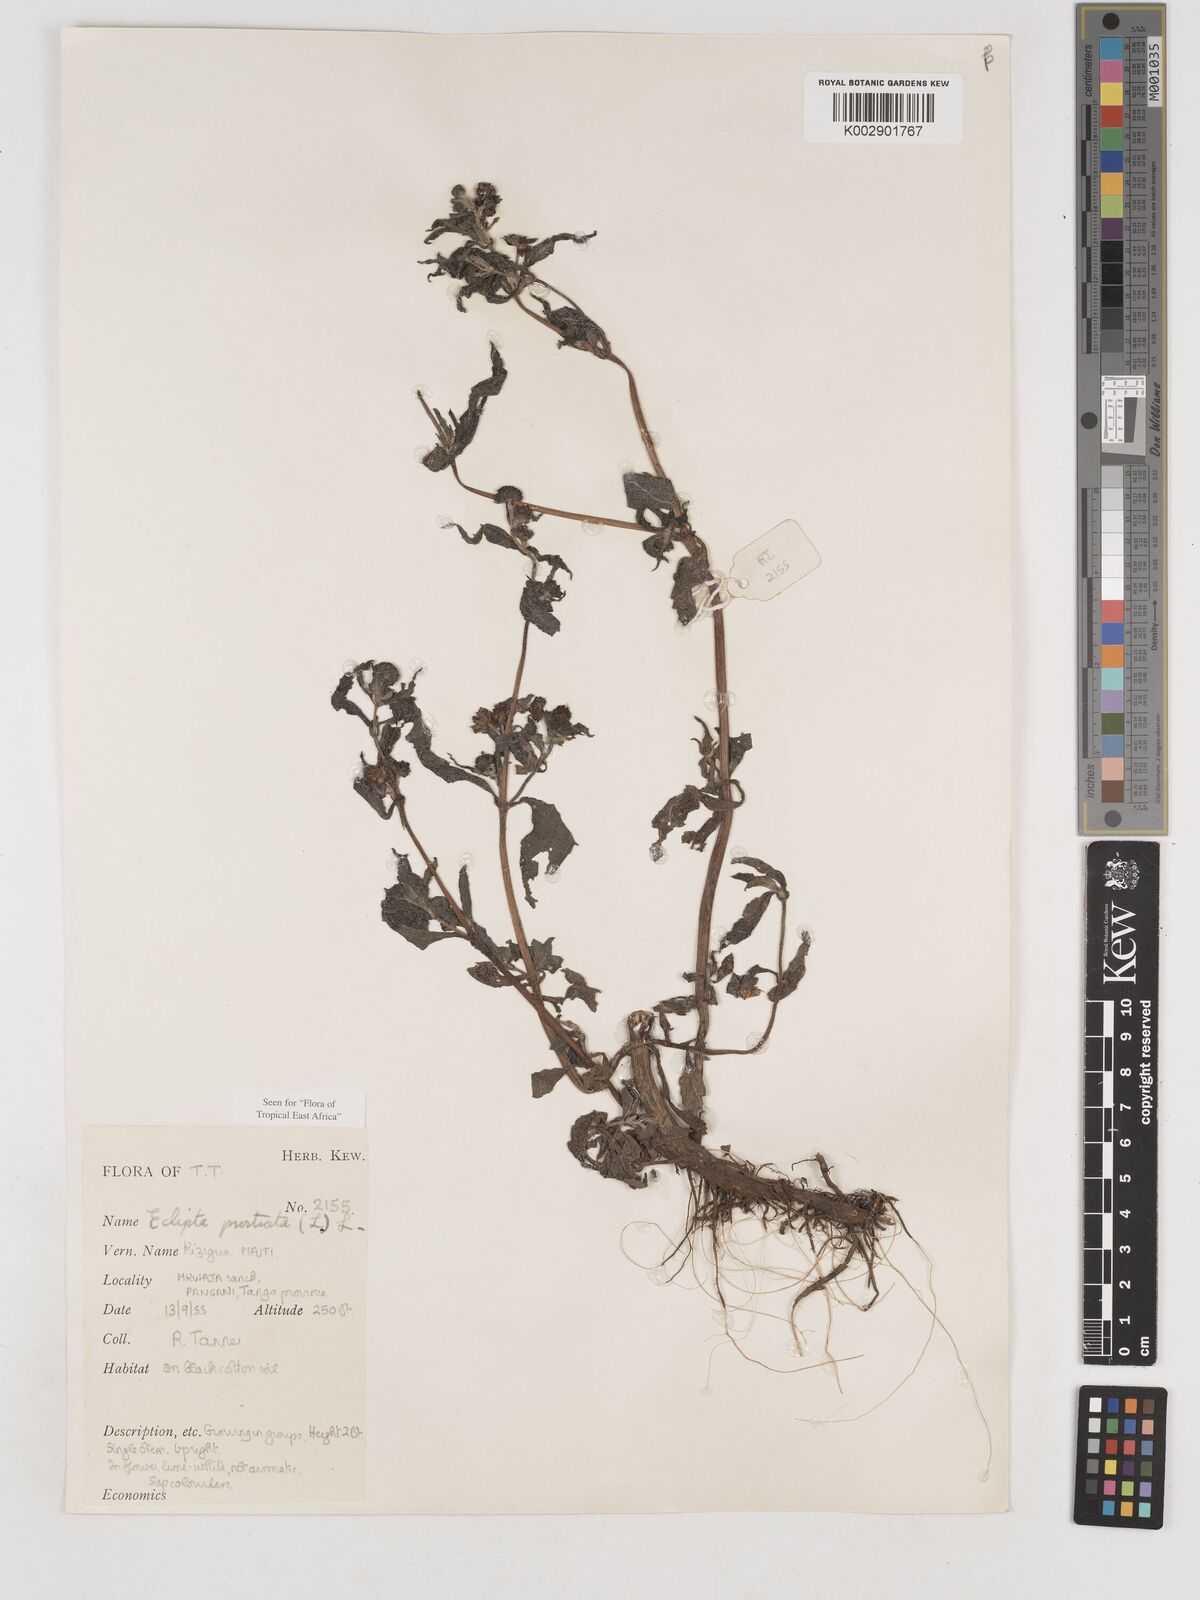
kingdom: Plantae
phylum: Tracheophyta
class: Magnoliopsida
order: Asterales
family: Asteraceae
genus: Eclipta
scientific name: Eclipta alba
